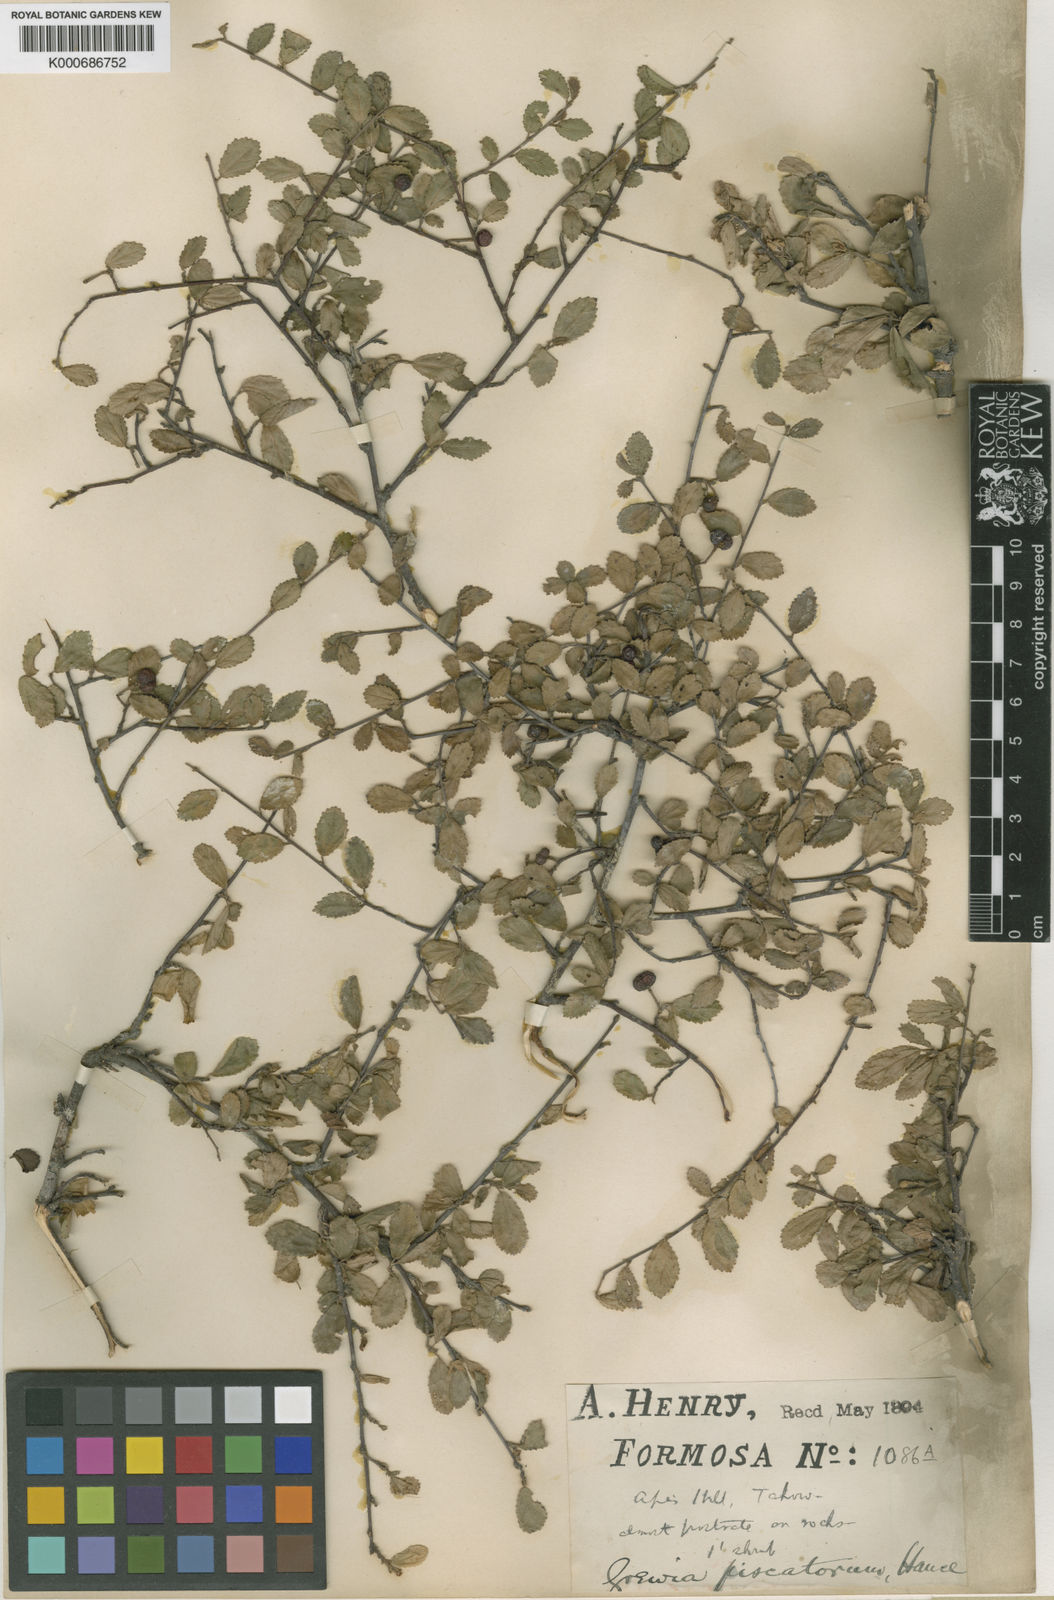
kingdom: Plantae
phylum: Tracheophyta
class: Magnoliopsida
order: Malvales
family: Malvaceae
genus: Grewia
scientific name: Grewia piscatorum
